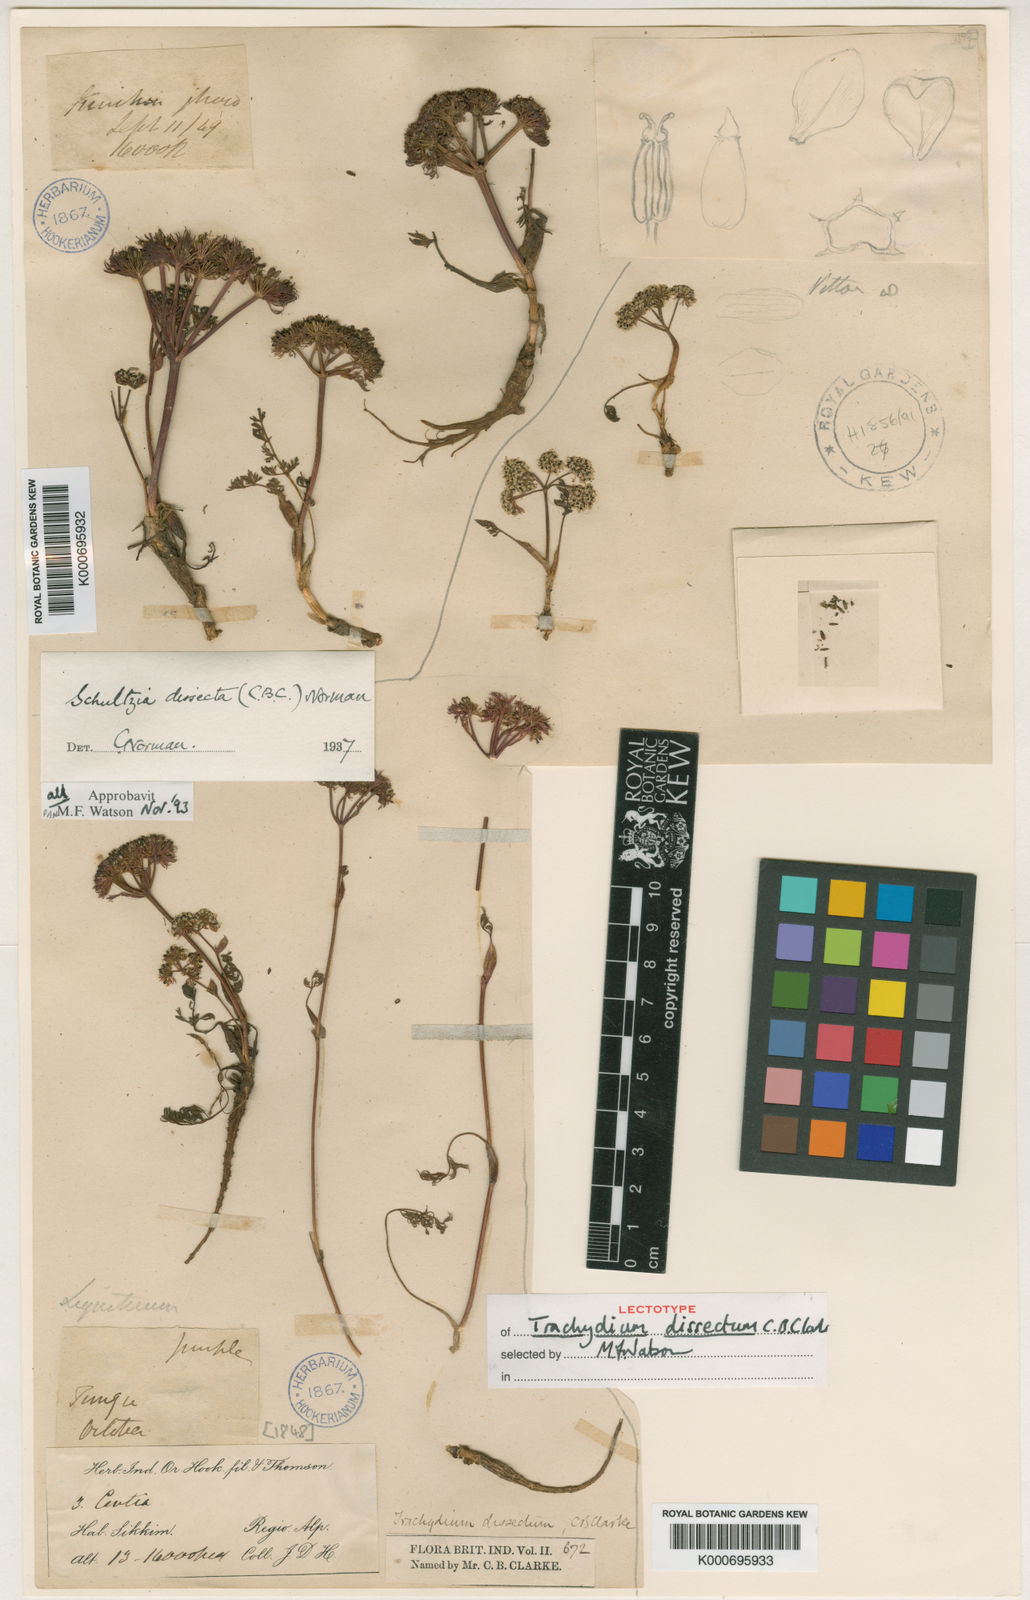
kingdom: Plantae
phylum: Tracheophyta
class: Magnoliopsida
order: Apiales
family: Apiaceae
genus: Schulzia
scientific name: Schulzia dissecta
